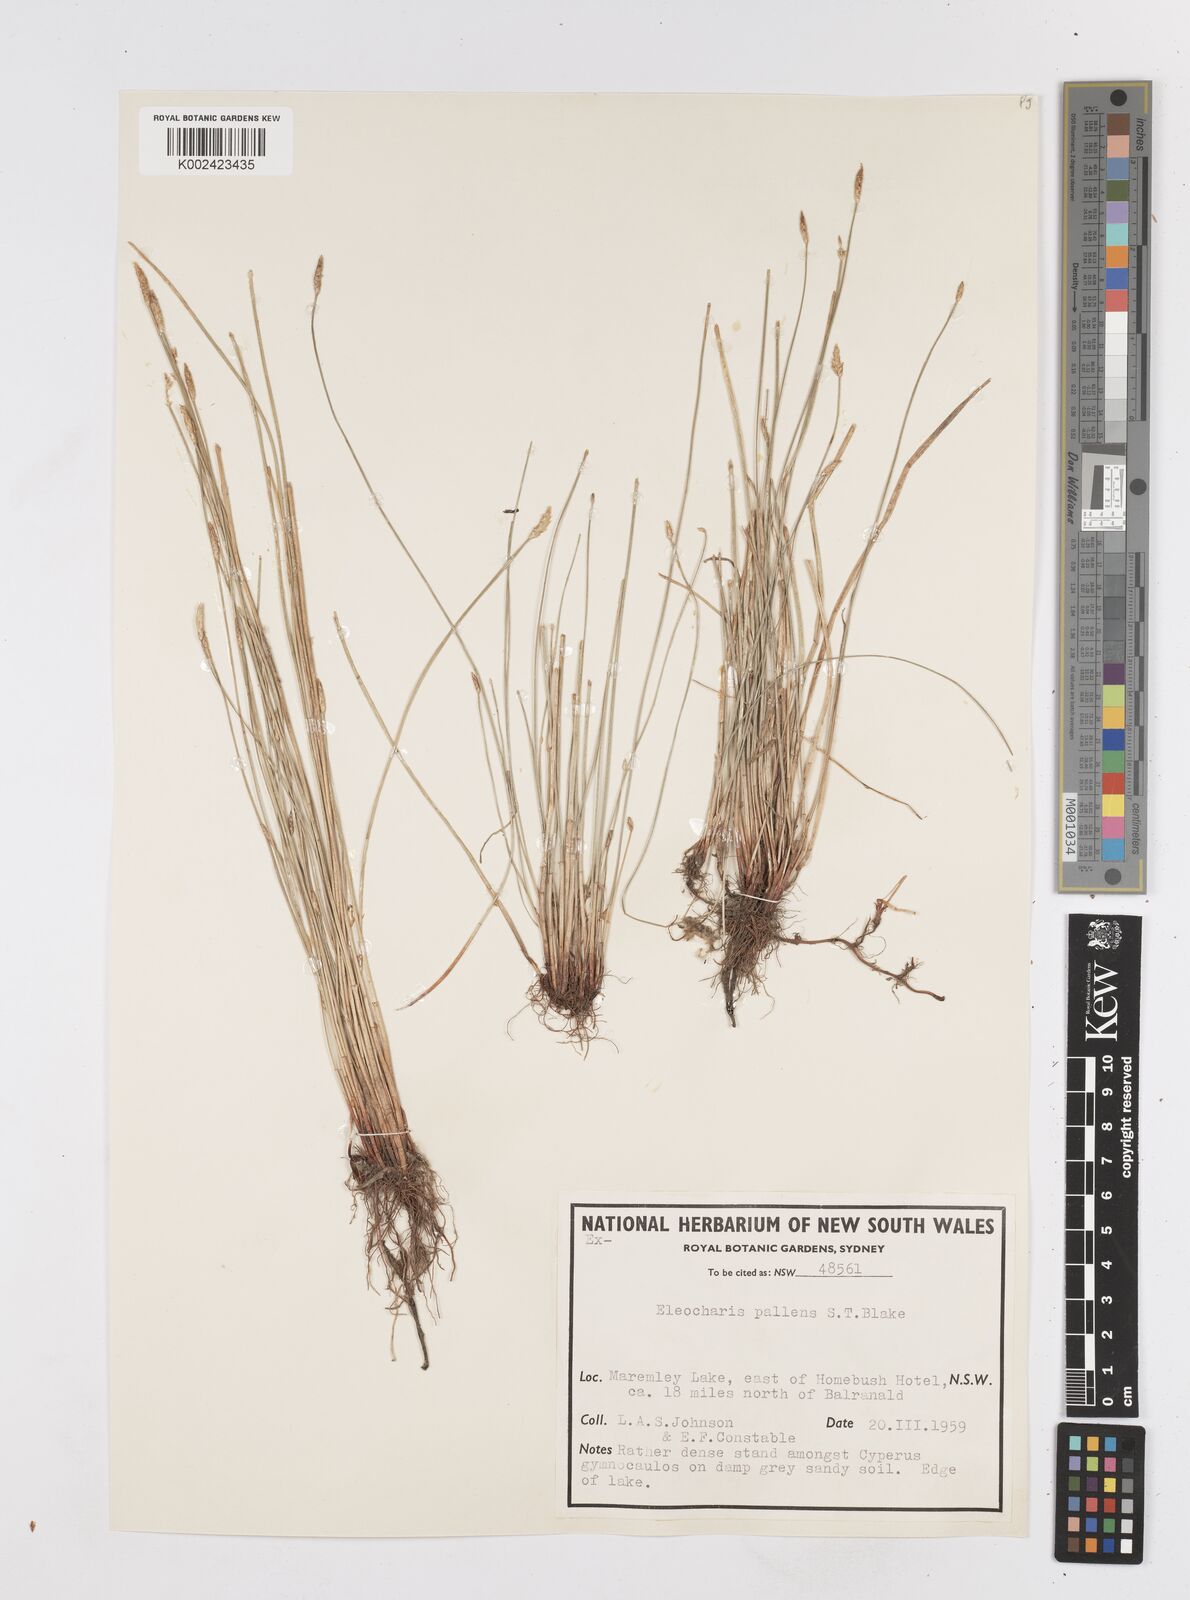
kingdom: Plantae
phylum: Tracheophyta
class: Liliopsida
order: Poales
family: Cyperaceae
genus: Eleocharis
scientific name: Eleocharis acuta
